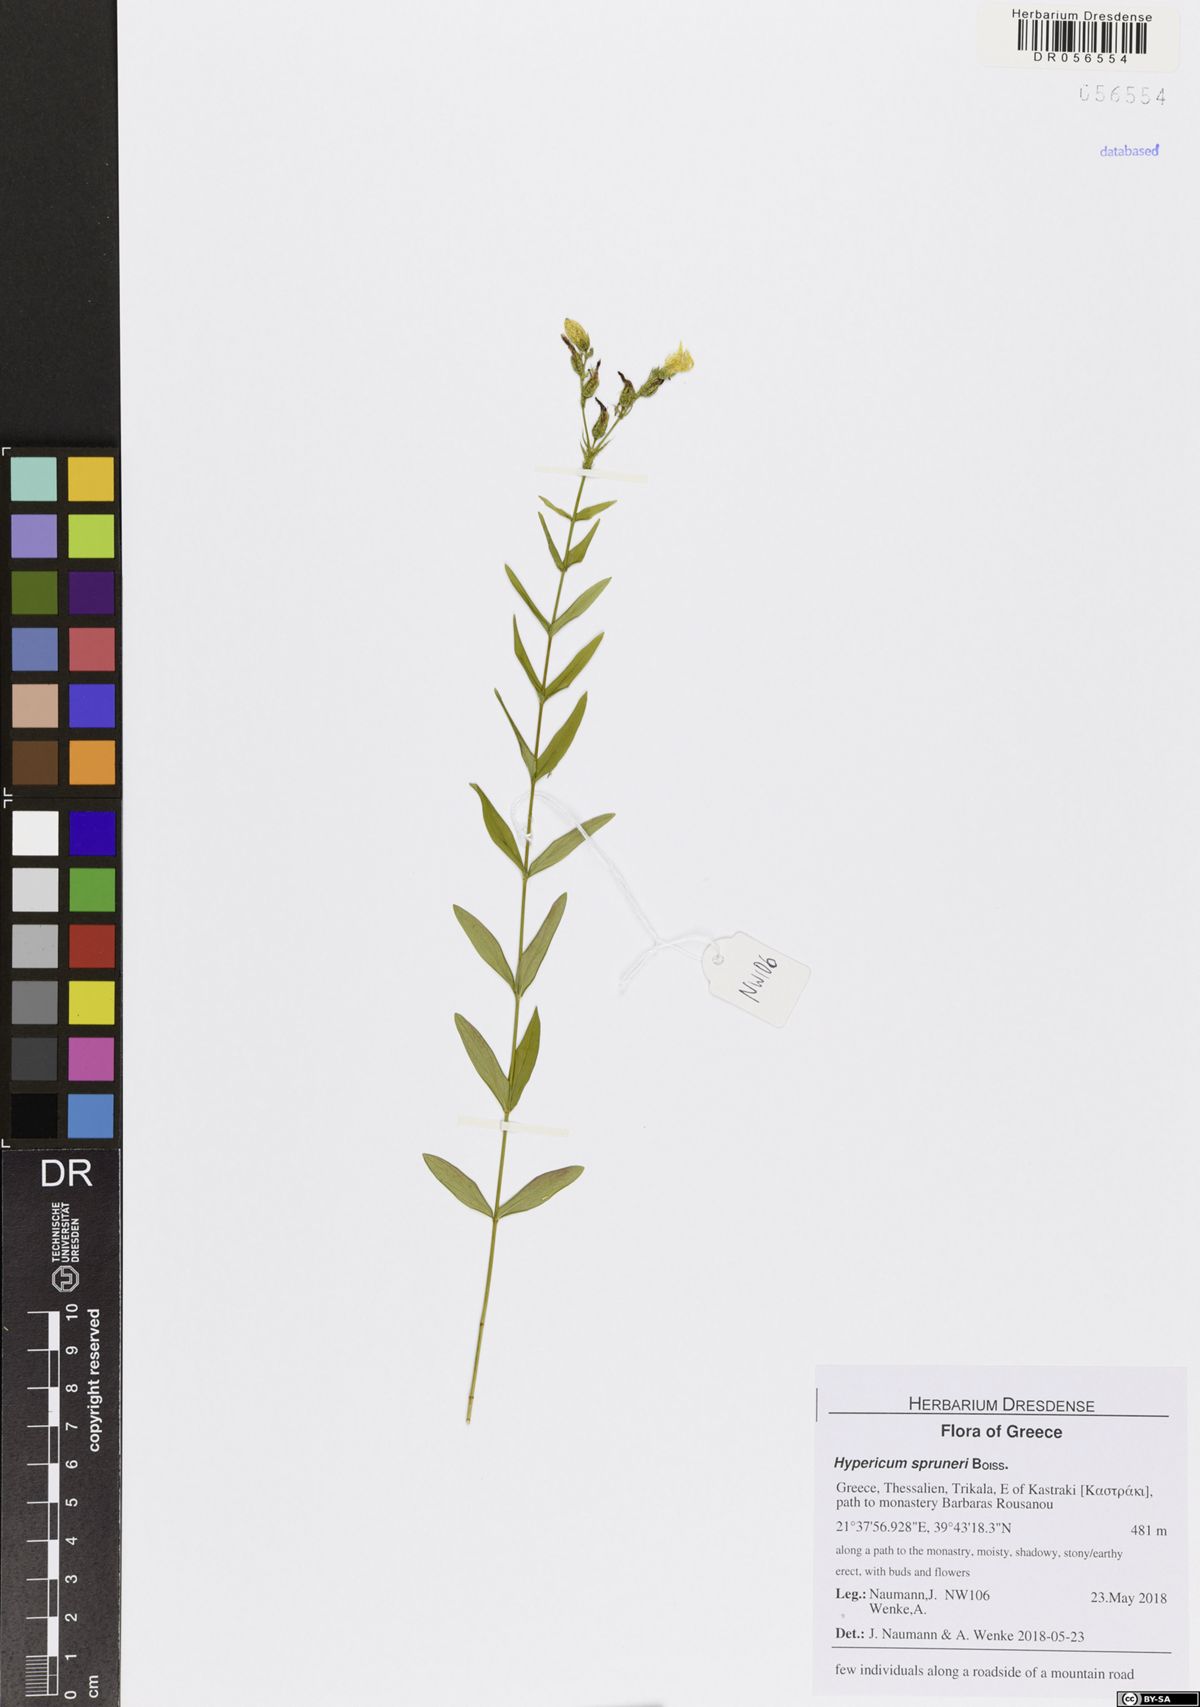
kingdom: Plantae
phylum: Tracheophyta
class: Magnoliopsida
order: Malpighiales
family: Hypericaceae
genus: Hypericum
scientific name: Hypericum spruneri
